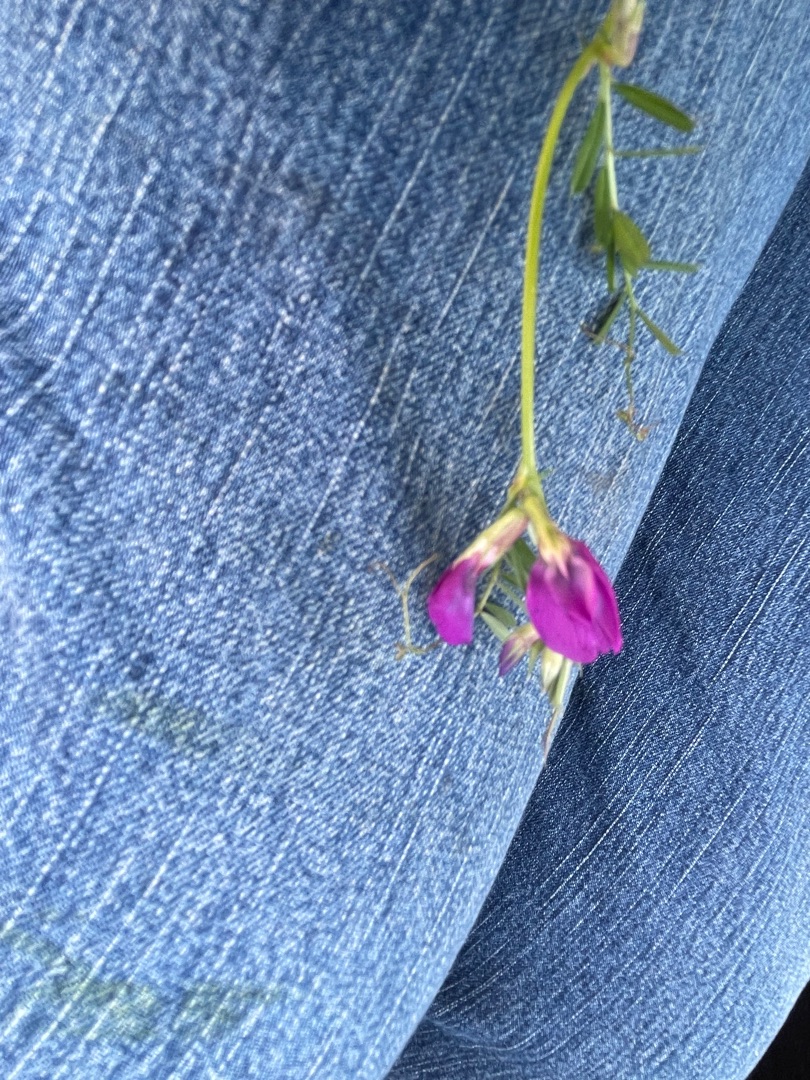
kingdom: Plantae
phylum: Tracheophyta
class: Magnoliopsida
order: Fabales
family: Fabaceae
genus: Vicia
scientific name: Vicia sativa
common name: Smalbladet vikke
